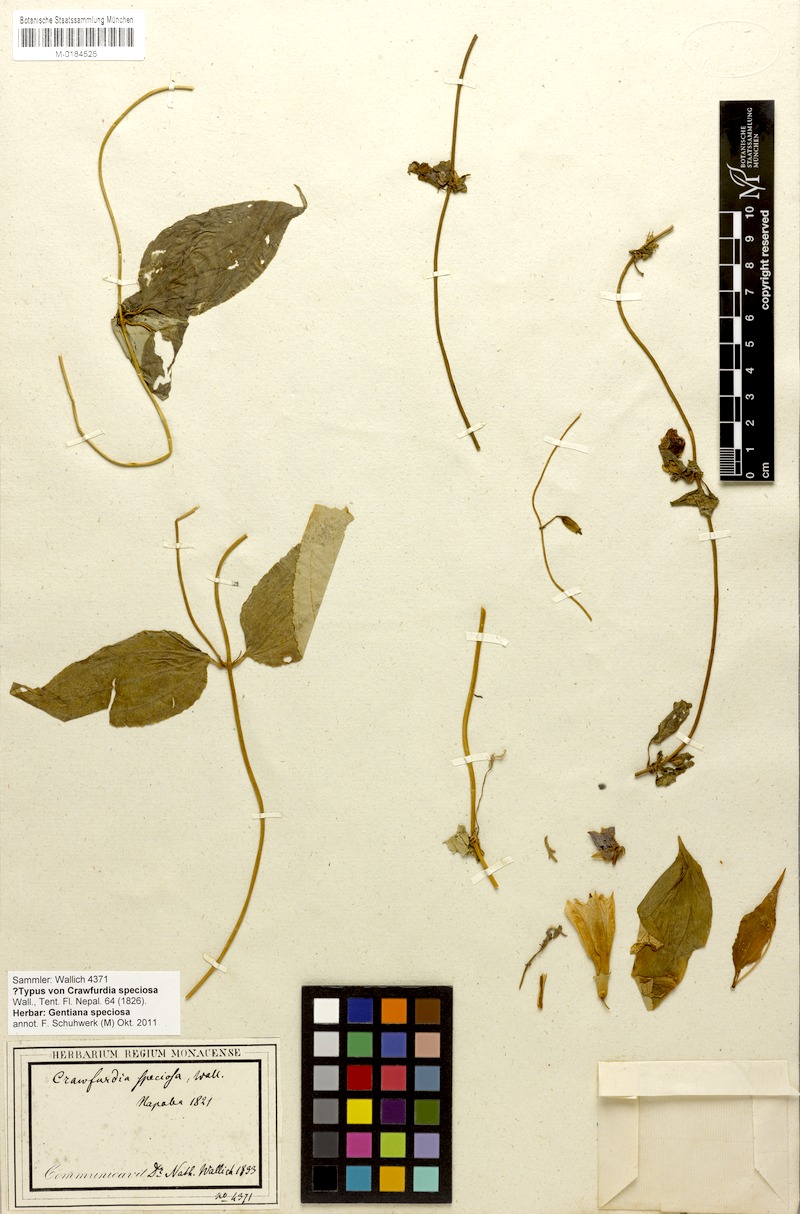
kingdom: Plantae
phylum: Tracheophyta
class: Magnoliopsida
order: Gentianales
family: Gentianaceae
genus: Crawfurdia
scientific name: Crawfurdia speciosa
